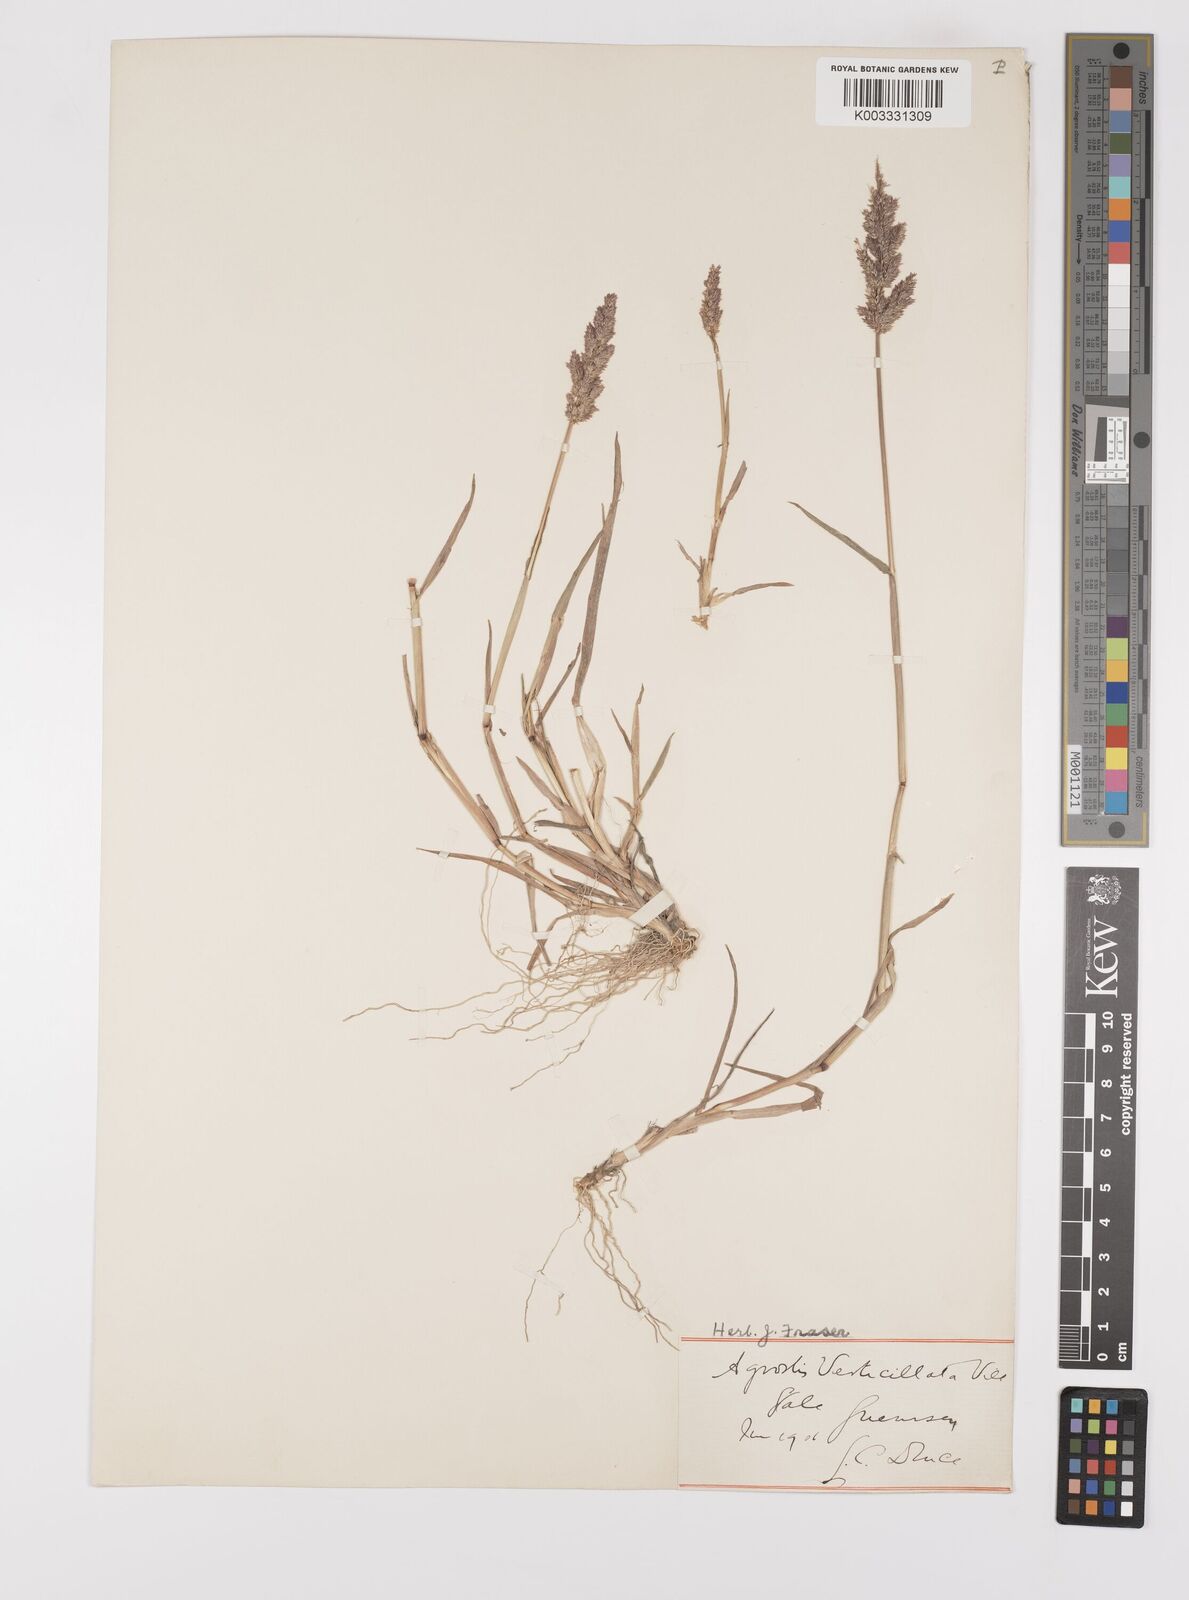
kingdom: Plantae
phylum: Tracheophyta
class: Liliopsida
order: Poales
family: Poaceae
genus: Polypogon
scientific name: Polypogon viridis
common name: Water bent
